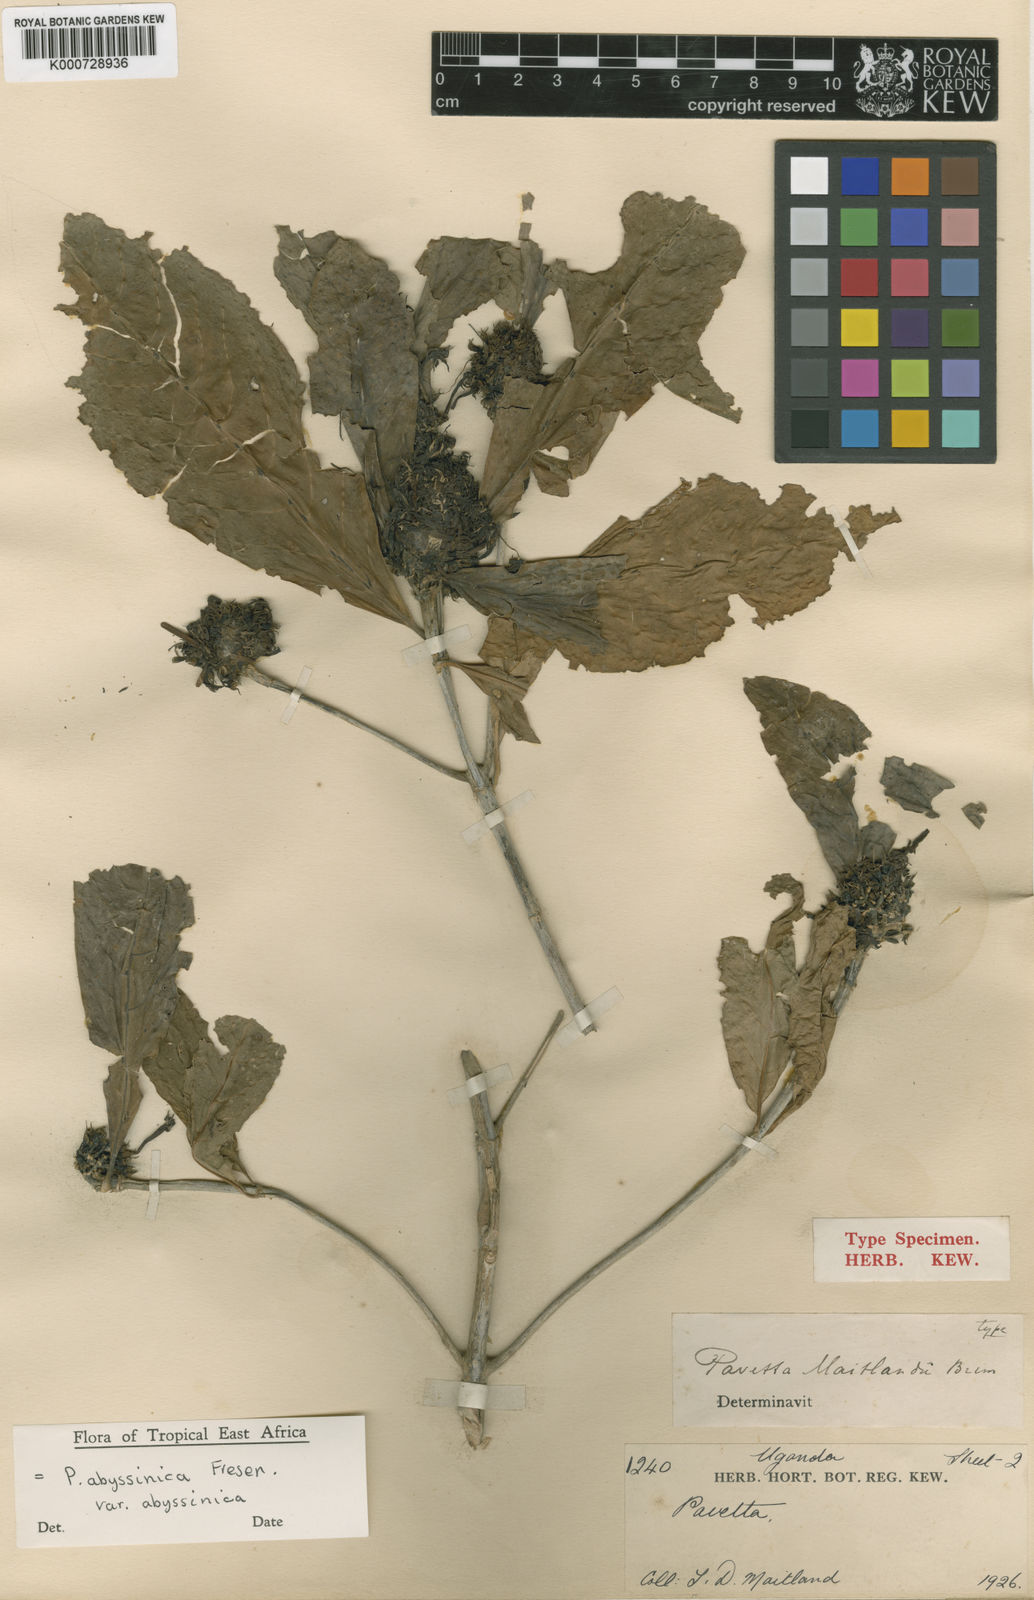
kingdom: Plantae
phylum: Tracheophyta
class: Magnoliopsida
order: Gentianales
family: Rubiaceae
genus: Pavetta
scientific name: Pavetta abyssinica
